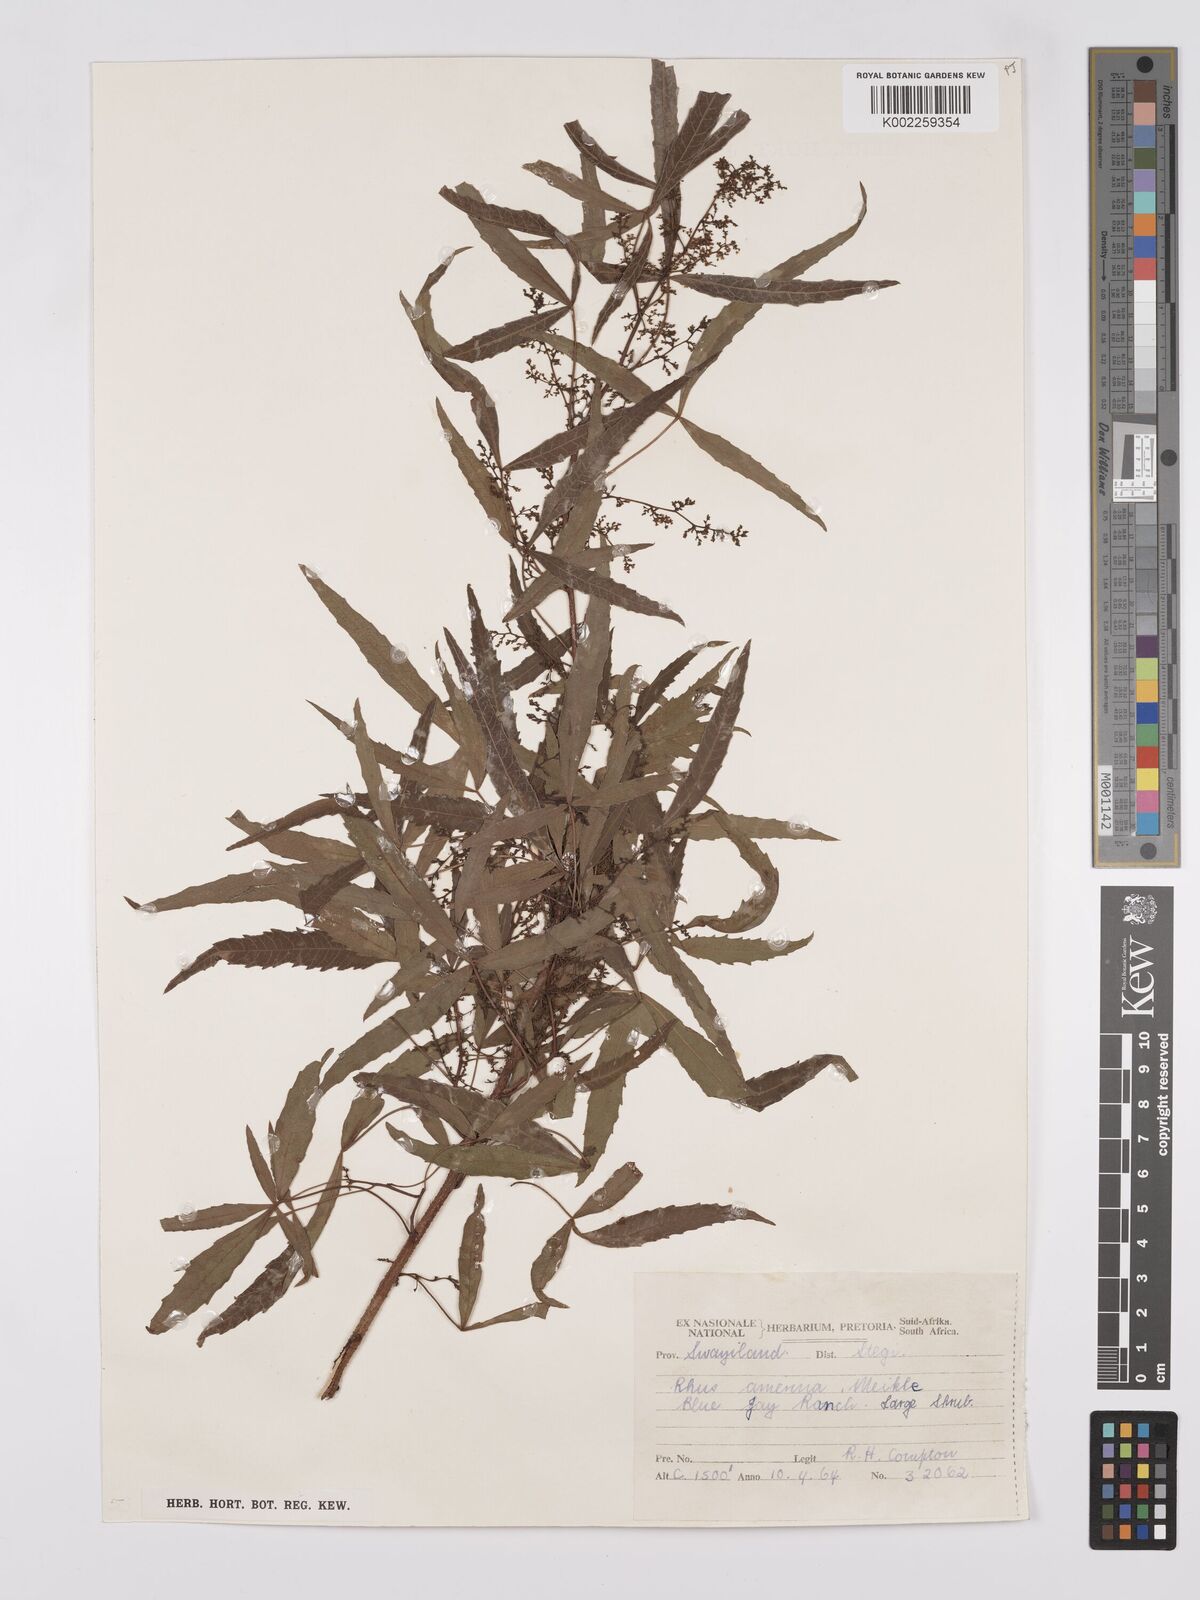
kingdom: Plantae
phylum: Tracheophyta
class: Magnoliopsida
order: Sapindales
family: Anacardiaceae
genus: Searsia
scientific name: Searsia leptodictya
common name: Mountain karee
